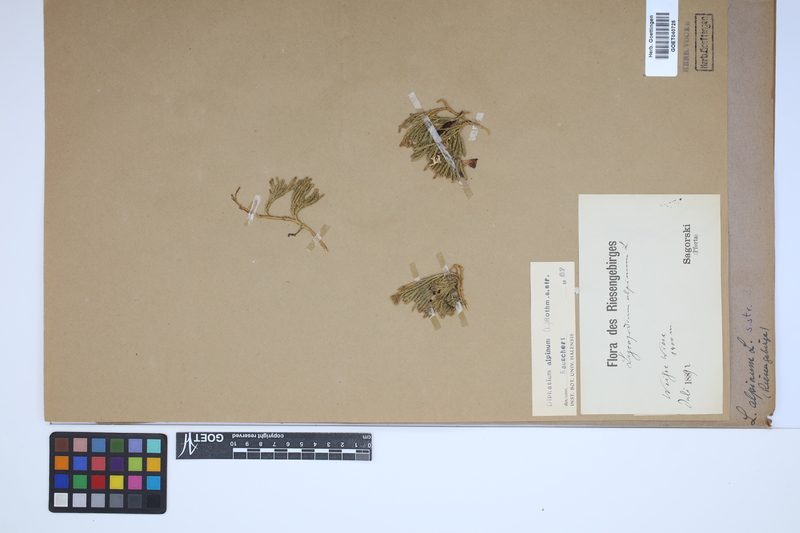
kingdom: Plantae
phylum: Tracheophyta
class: Lycopodiopsida
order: Lycopodiales
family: Lycopodiaceae
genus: Diphasiastrum
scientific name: Diphasiastrum alpinum
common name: Alpine clubmoss
